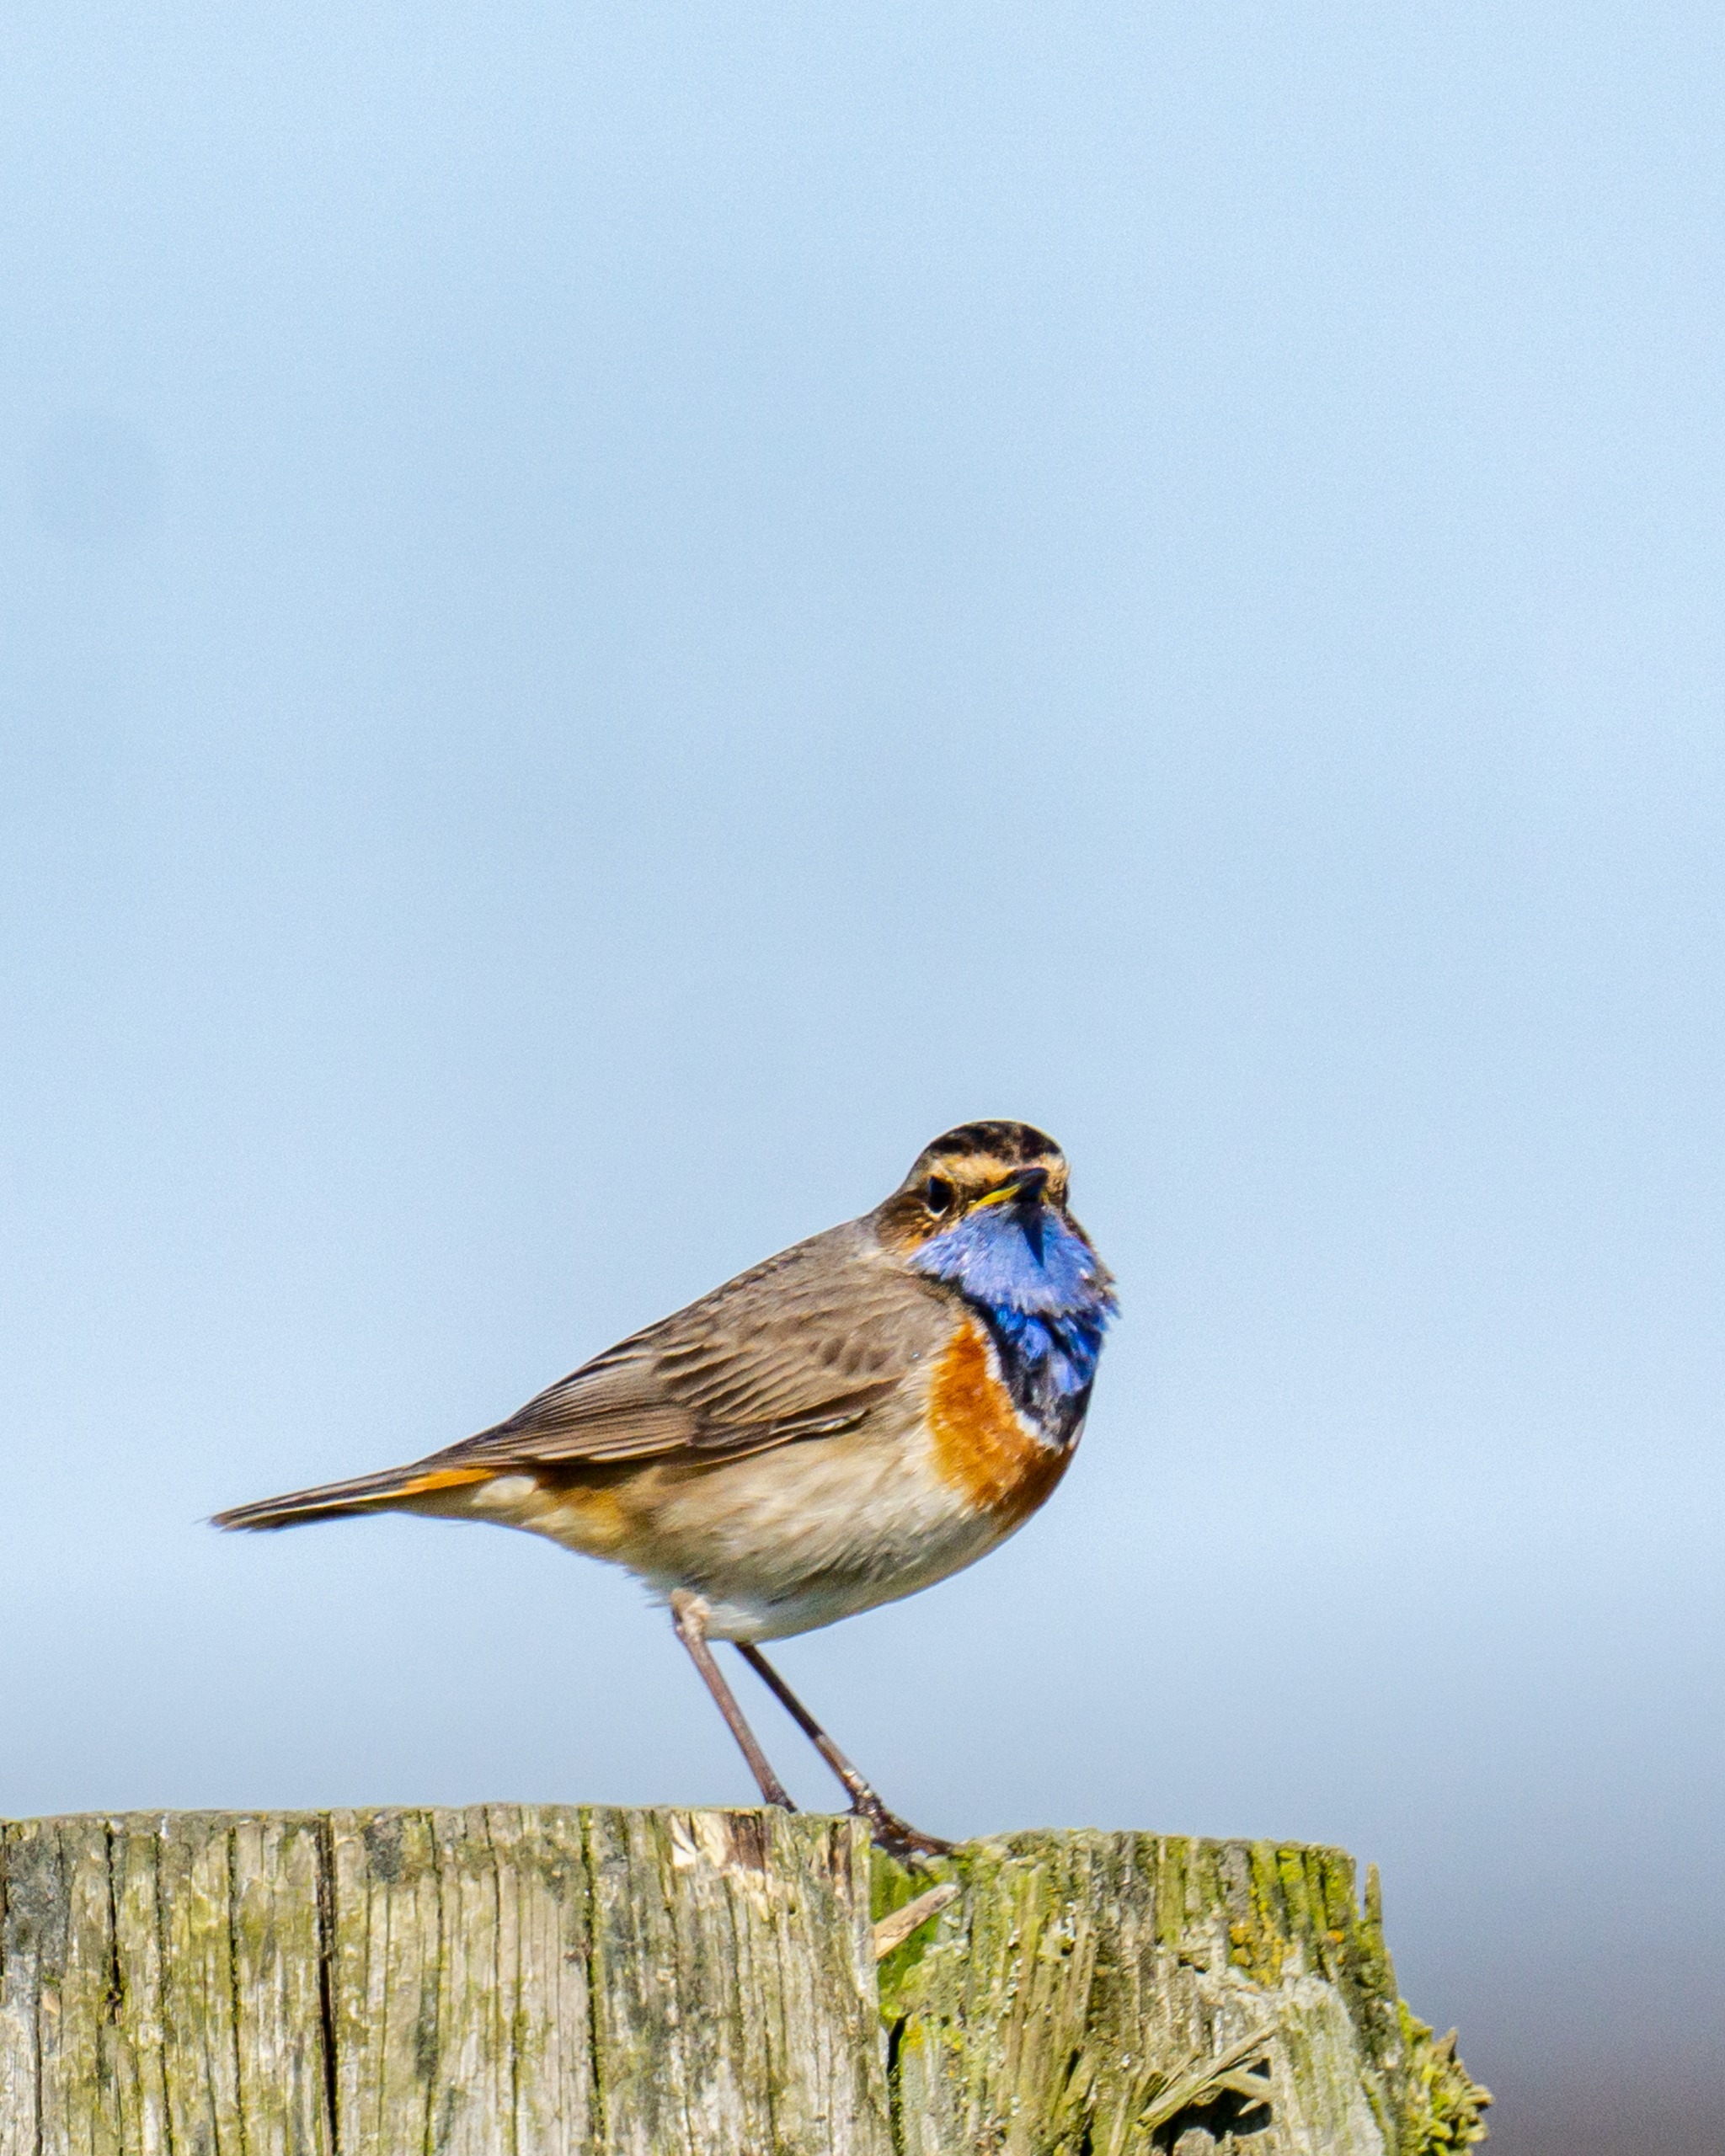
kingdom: Animalia
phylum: Chordata
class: Aves
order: Passeriformes
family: Muscicapidae
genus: Luscinia
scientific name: Luscinia svecica
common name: Blåhals
